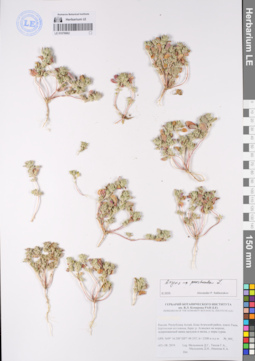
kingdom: Plantae
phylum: Tracheophyta
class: Magnoliopsida
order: Caryophyllales
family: Amaranthaceae
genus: Axyris
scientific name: Axyris prostrata
